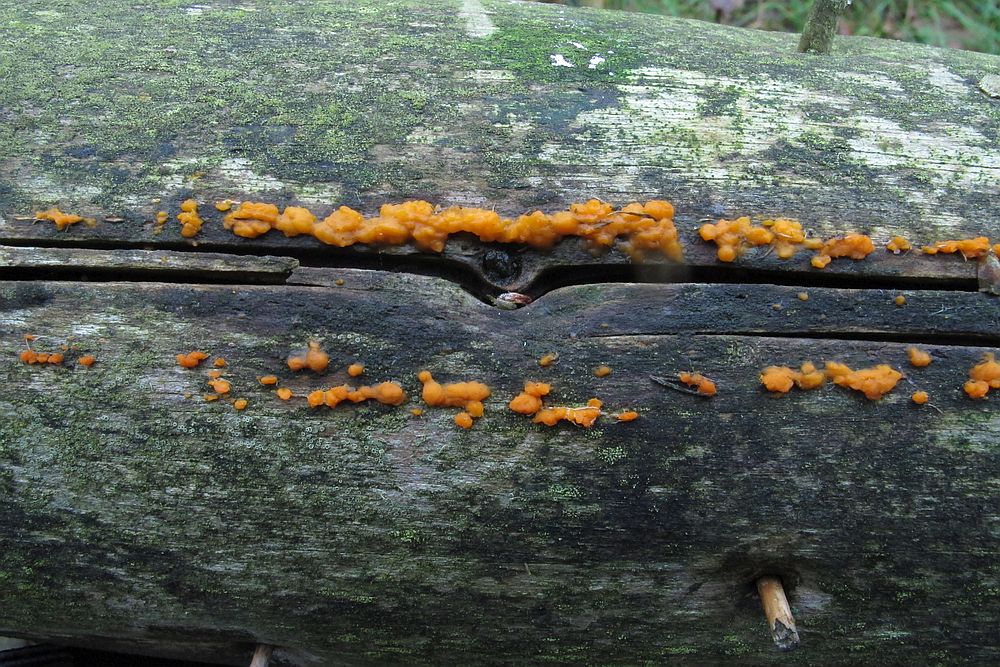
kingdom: Fungi
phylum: Basidiomycota
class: Dacrymycetes
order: Dacrymycetales
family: Dacrymycetaceae
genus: Dacrymyces
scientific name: Dacrymyces stillatus
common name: almindelig tåresvamp
